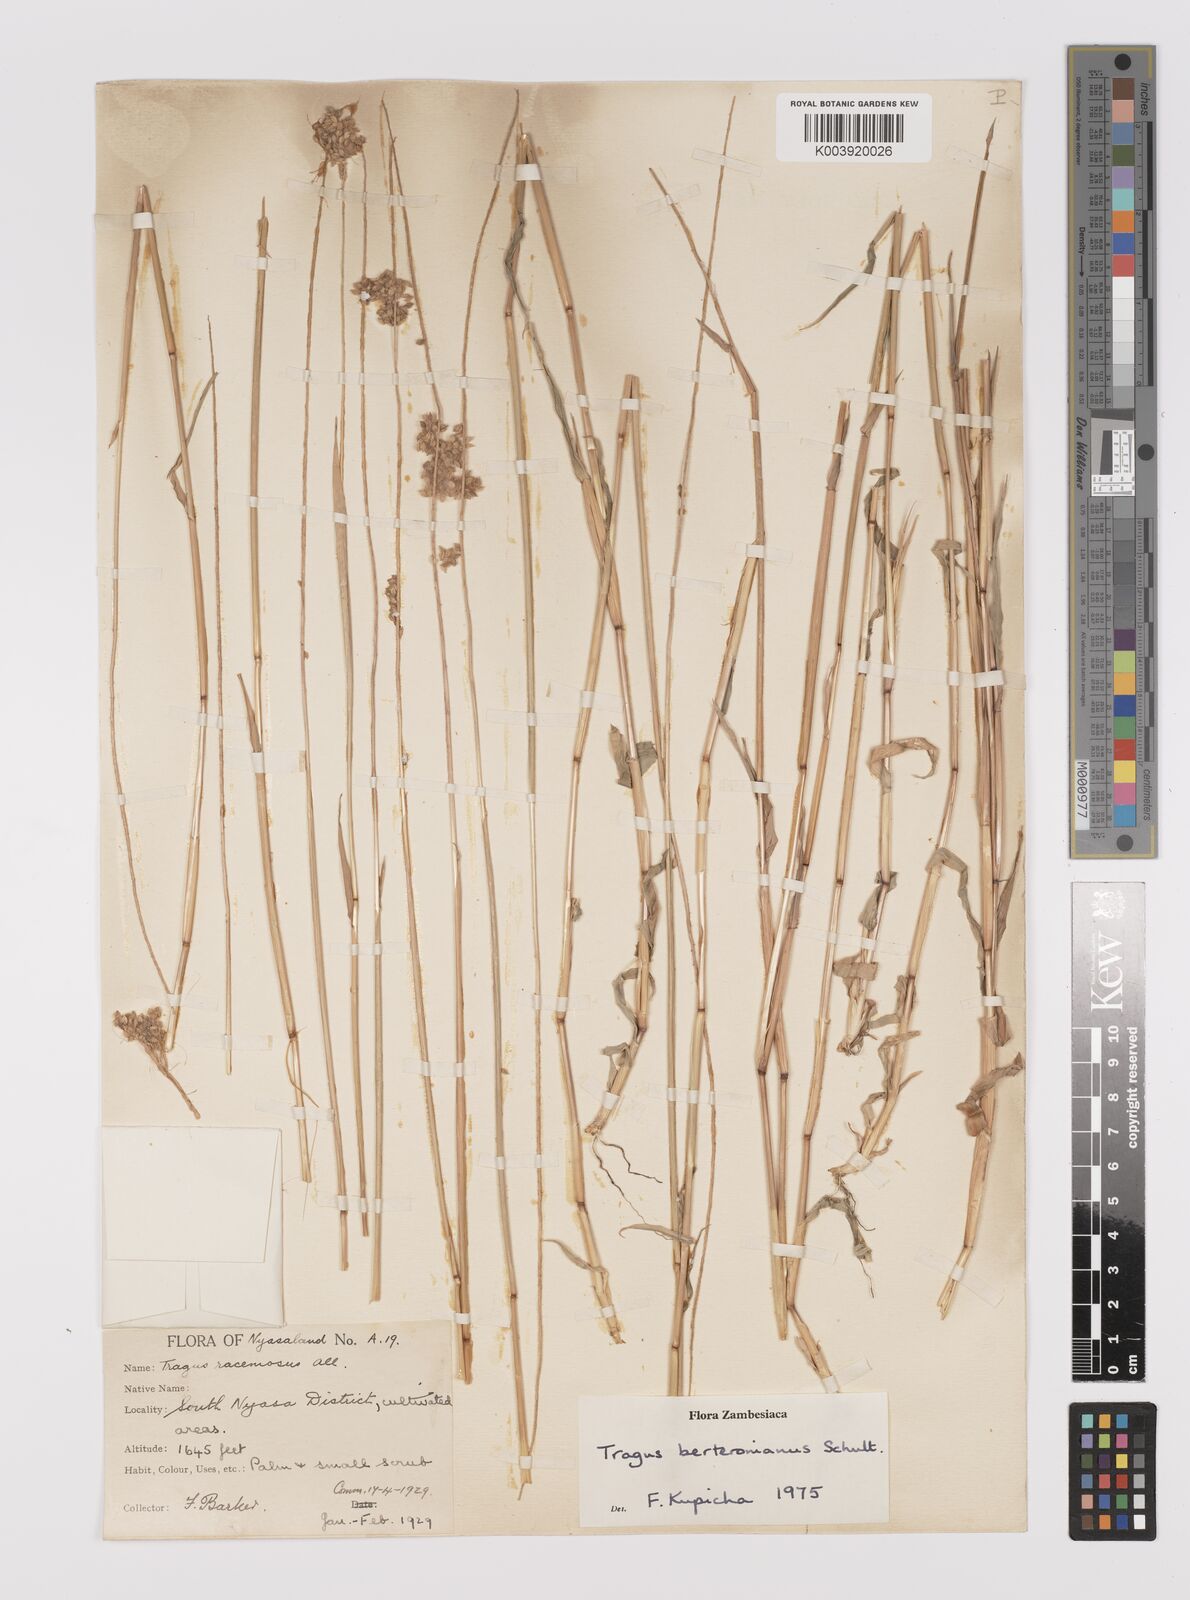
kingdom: Plantae
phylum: Tracheophyta
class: Liliopsida
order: Poales
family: Poaceae
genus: Tragus
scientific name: Tragus berteronianus
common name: African bur-grass
